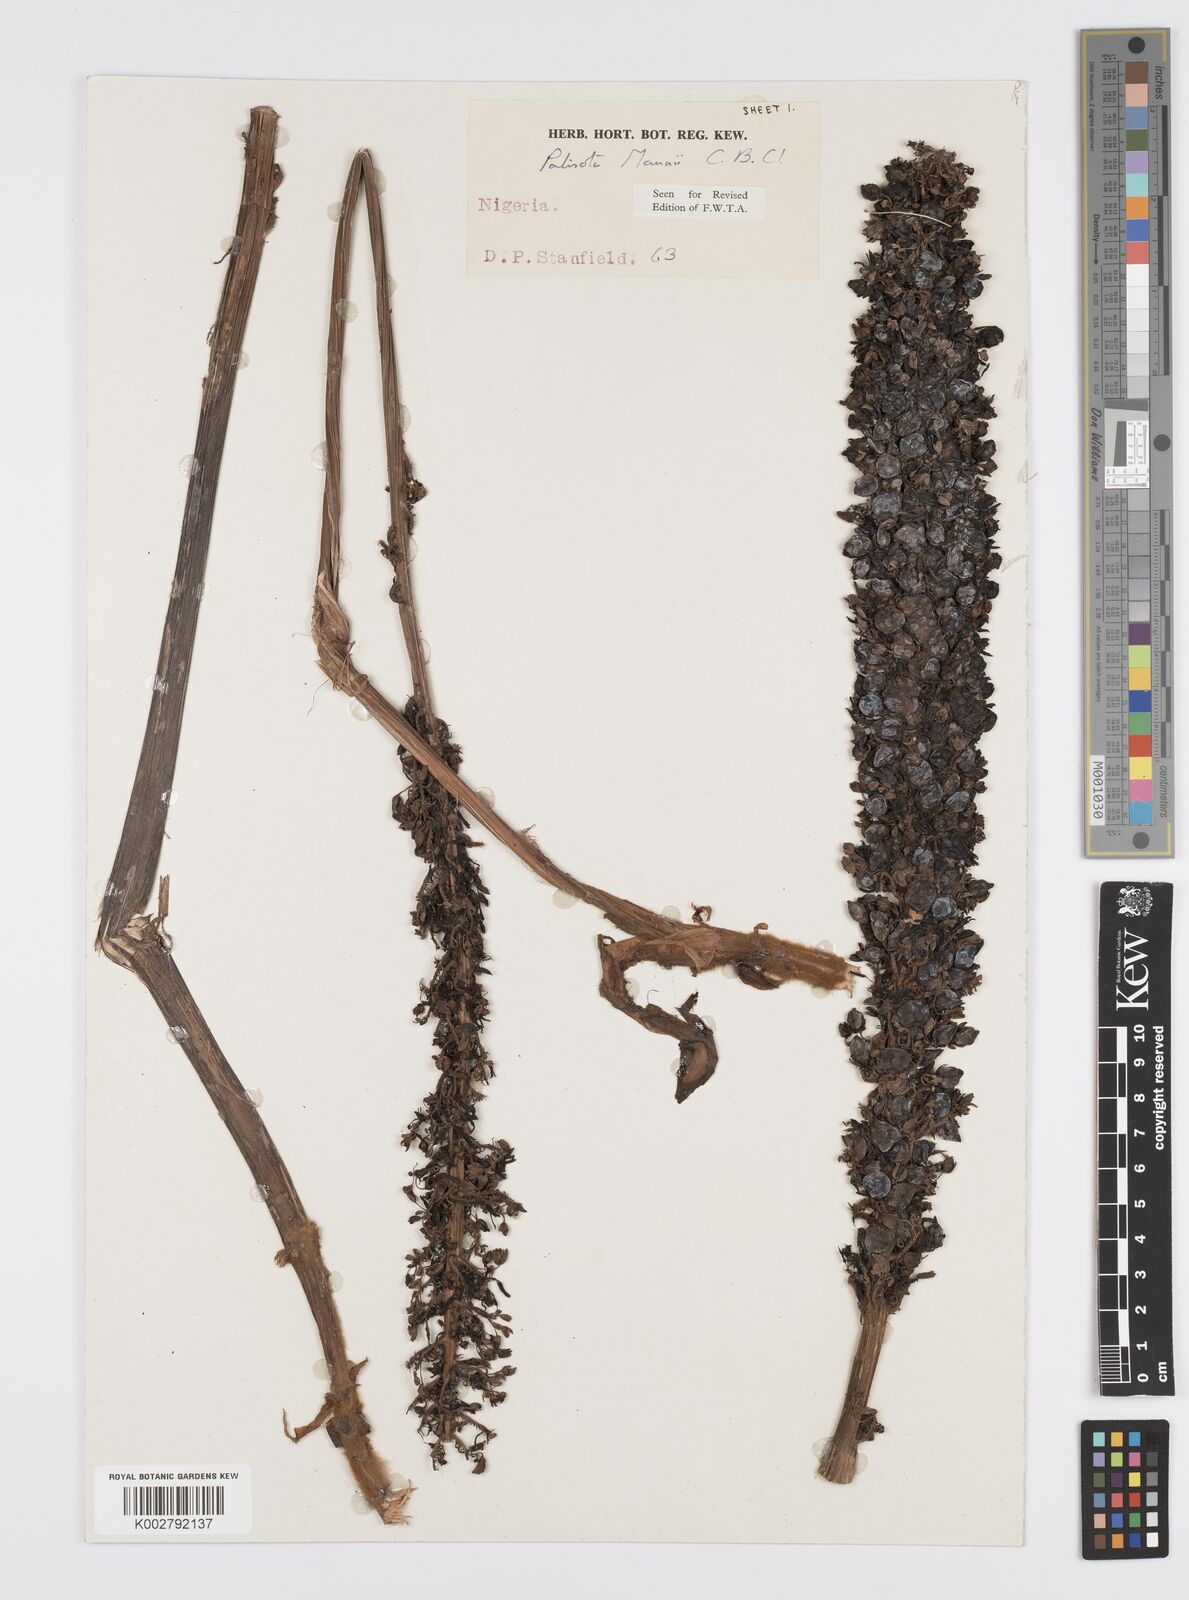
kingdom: Plantae
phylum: Tracheophyta
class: Liliopsida
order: Commelinales
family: Commelinaceae
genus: Palisota
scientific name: Palisota mannii
